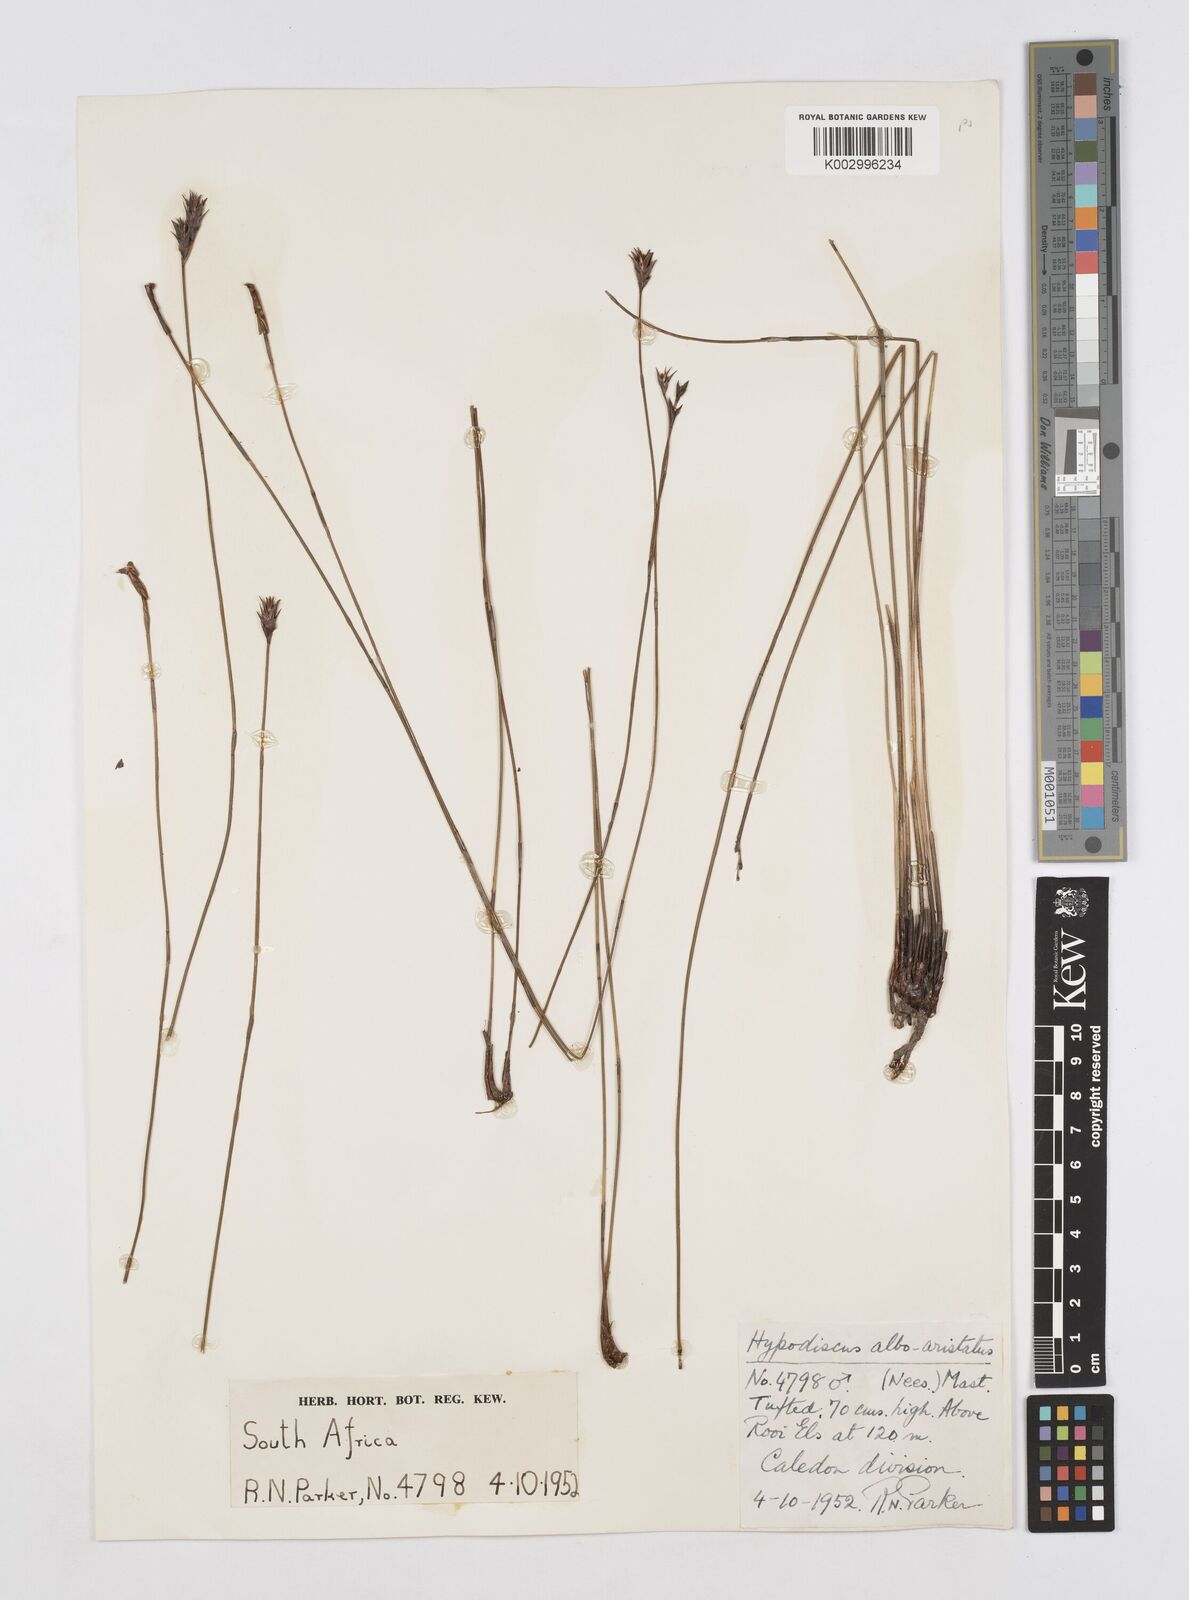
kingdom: Plantae
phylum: Tracheophyta
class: Liliopsida
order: Poales
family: Restionaceae
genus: Hypodiscus
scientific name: Hypodiscus alboaristatus
